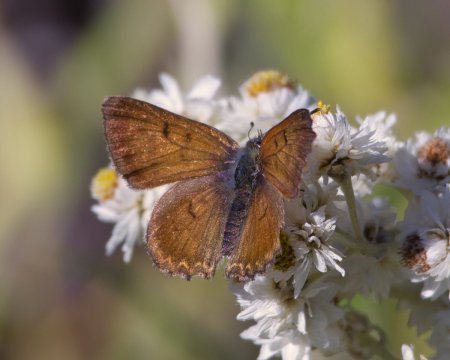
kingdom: Animalia
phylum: Arthropoda
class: Insecta
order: Lepidoptera
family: Lycaenidae
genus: Lycaena
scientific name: Lycaena mariposa
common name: Mariposa Copper
